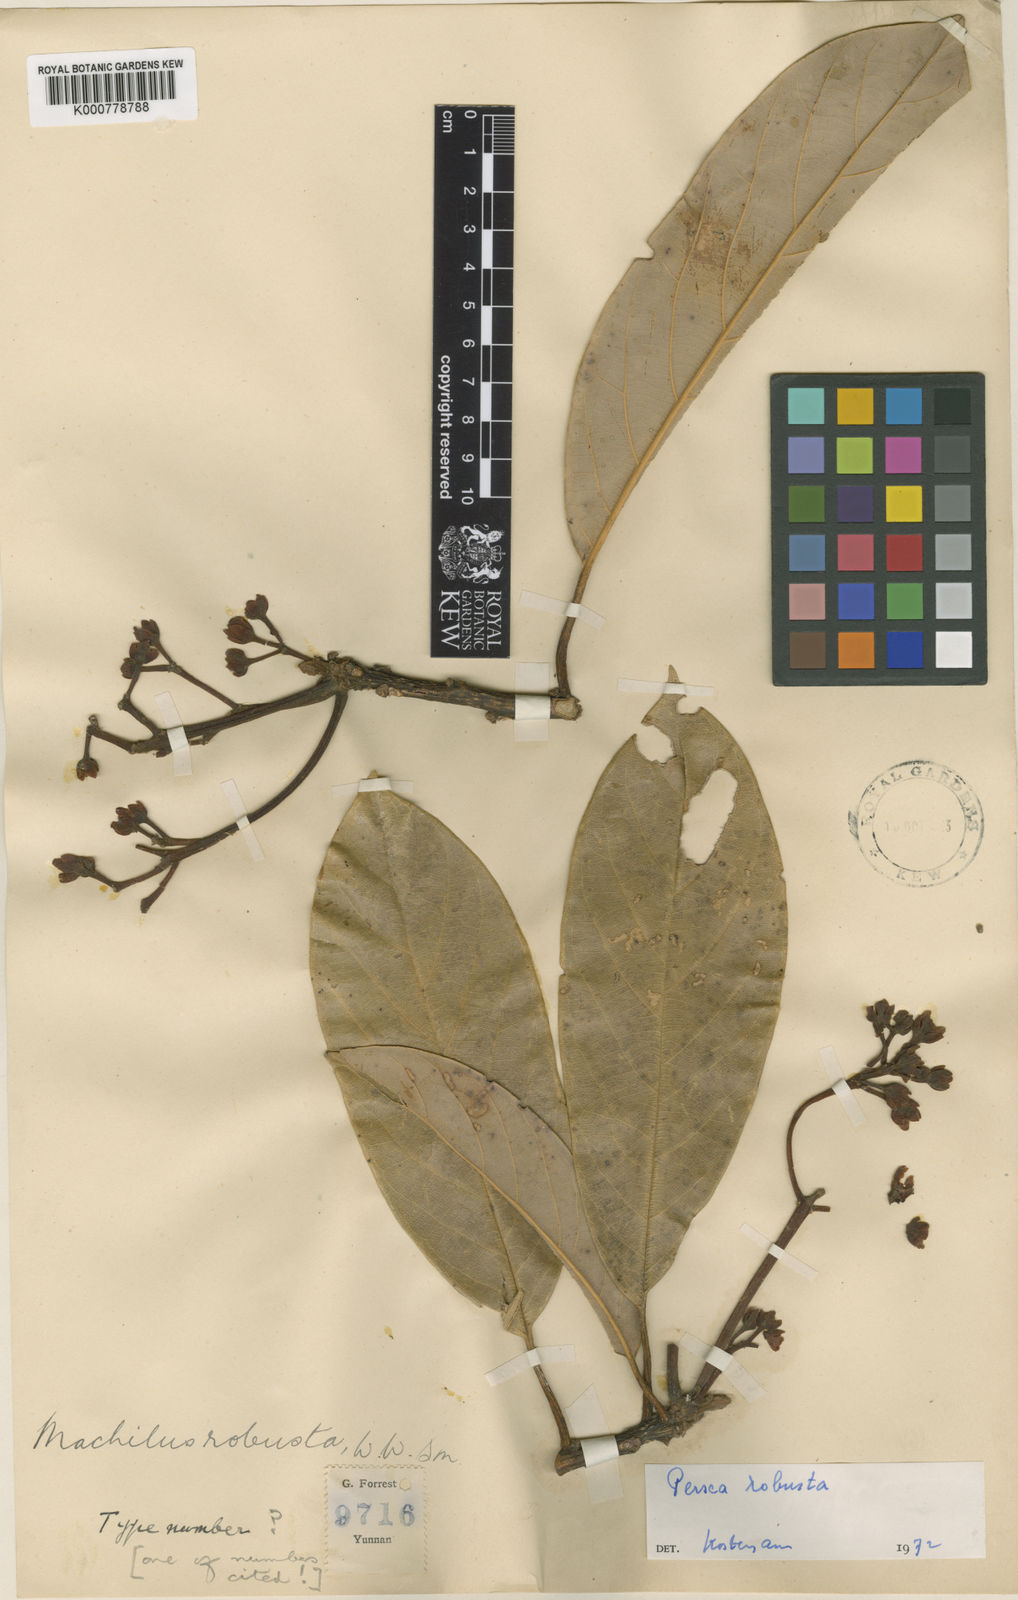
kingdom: Plantae
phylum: Tracheophyta
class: Magnoliopsida
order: Laurales
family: Lauraceae
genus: Machilus
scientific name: Machilus robustus
